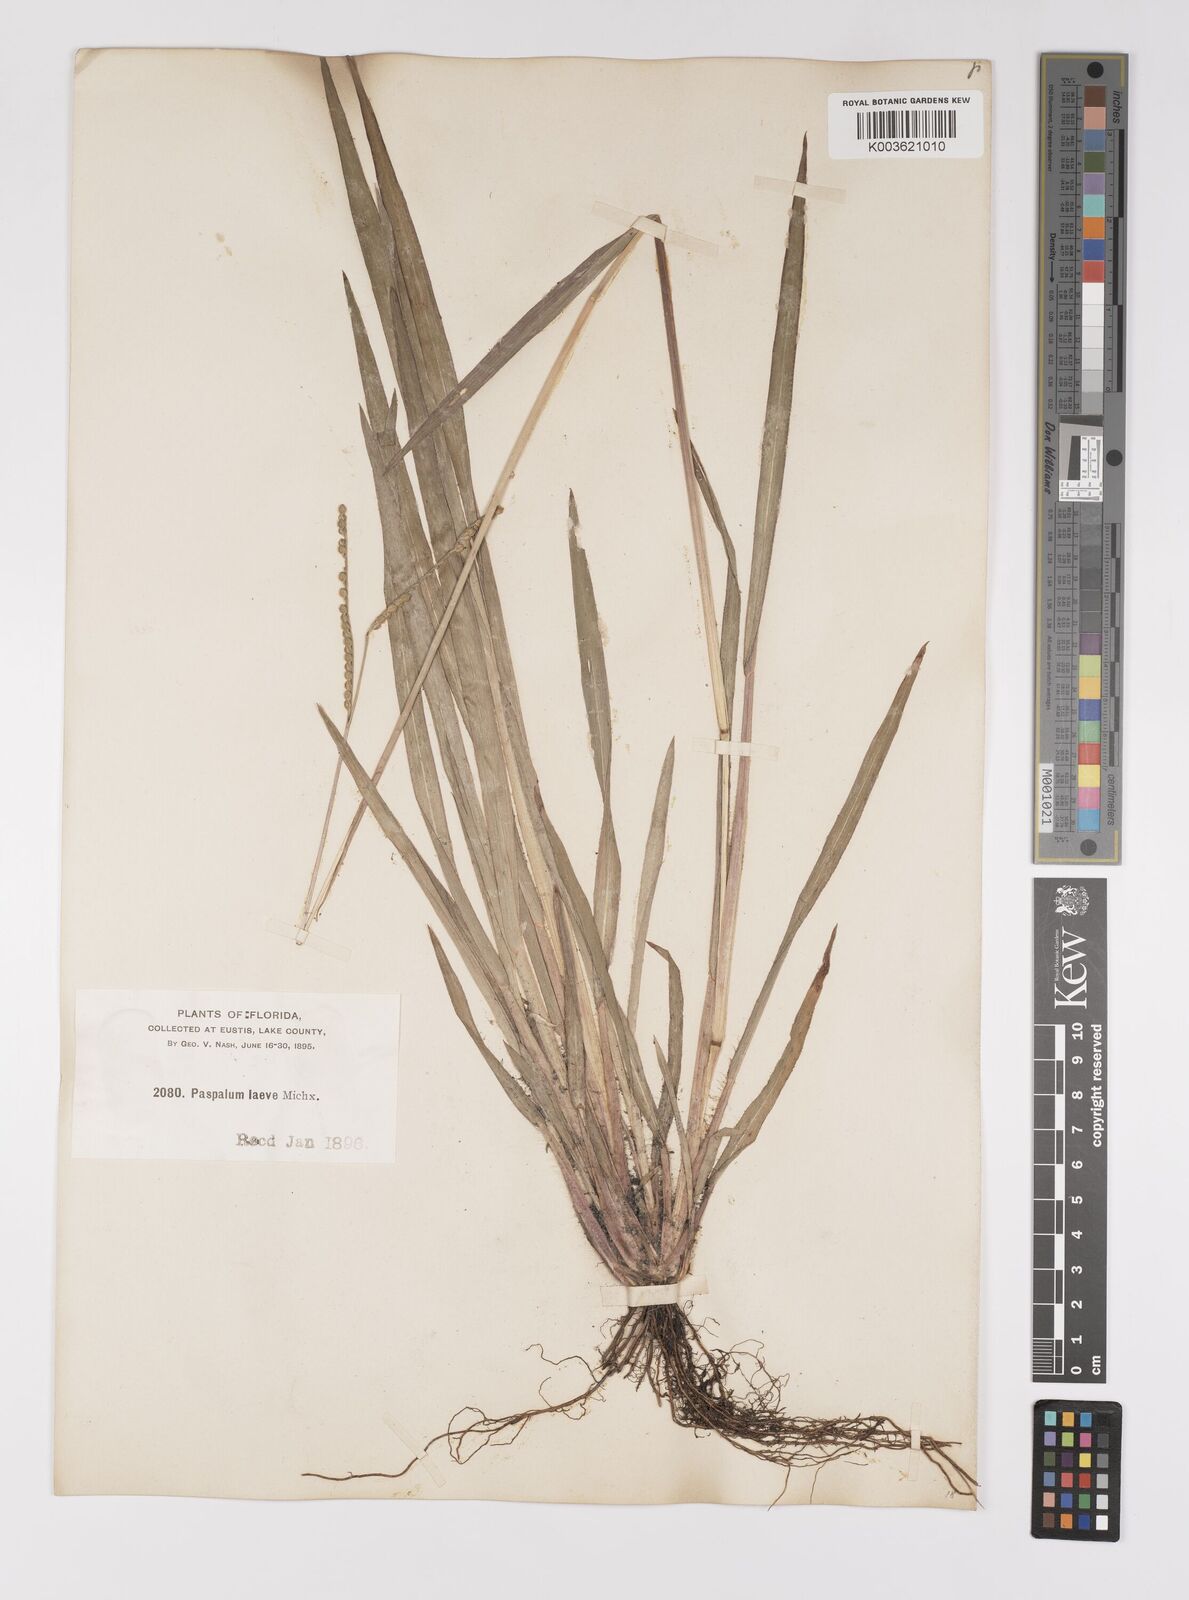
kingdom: Plantae
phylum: Tracheophyta
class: Liliopsida
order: Poales
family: Poaceae
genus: Paspalum
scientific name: Paspalum laeve
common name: Field paspalum
